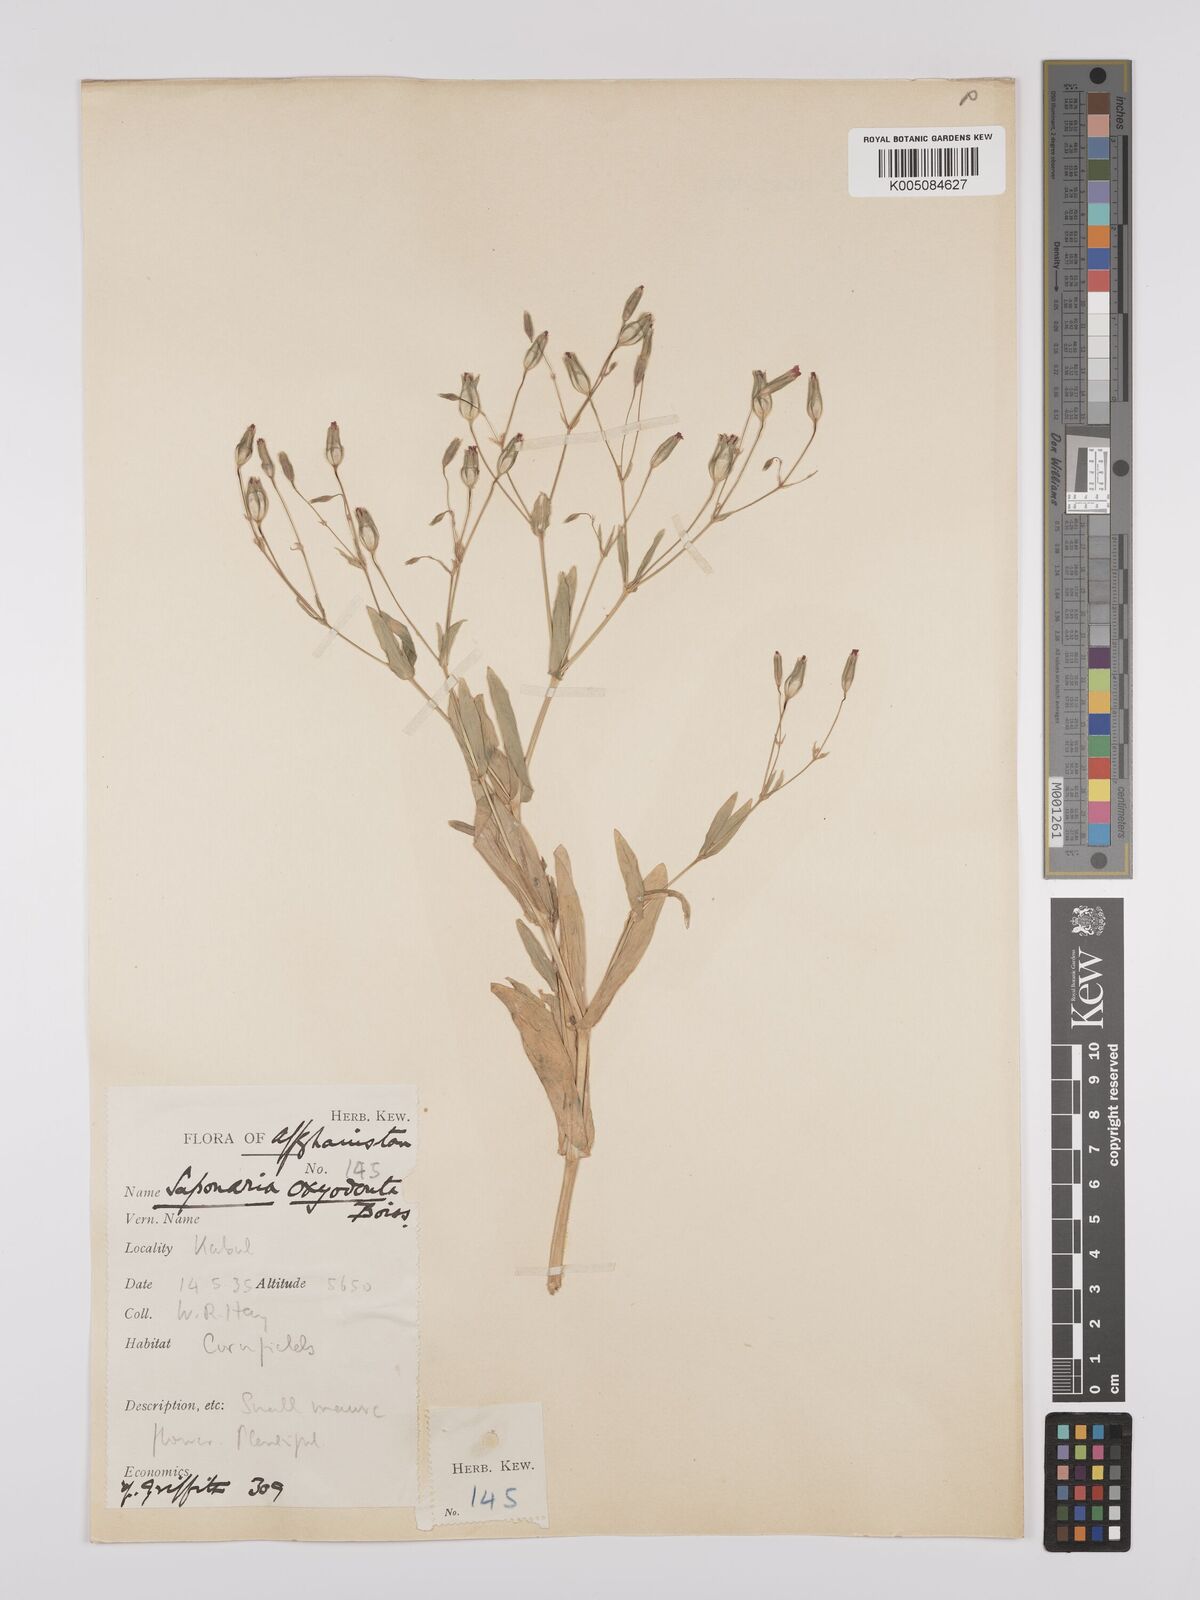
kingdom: Plantae
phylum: Tracheophyta
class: Magnoliopsida
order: Caryophyllales
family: Caryophyllaceae
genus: Gypsophila
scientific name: Gypsophila vaccaria
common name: Cow soapwort
